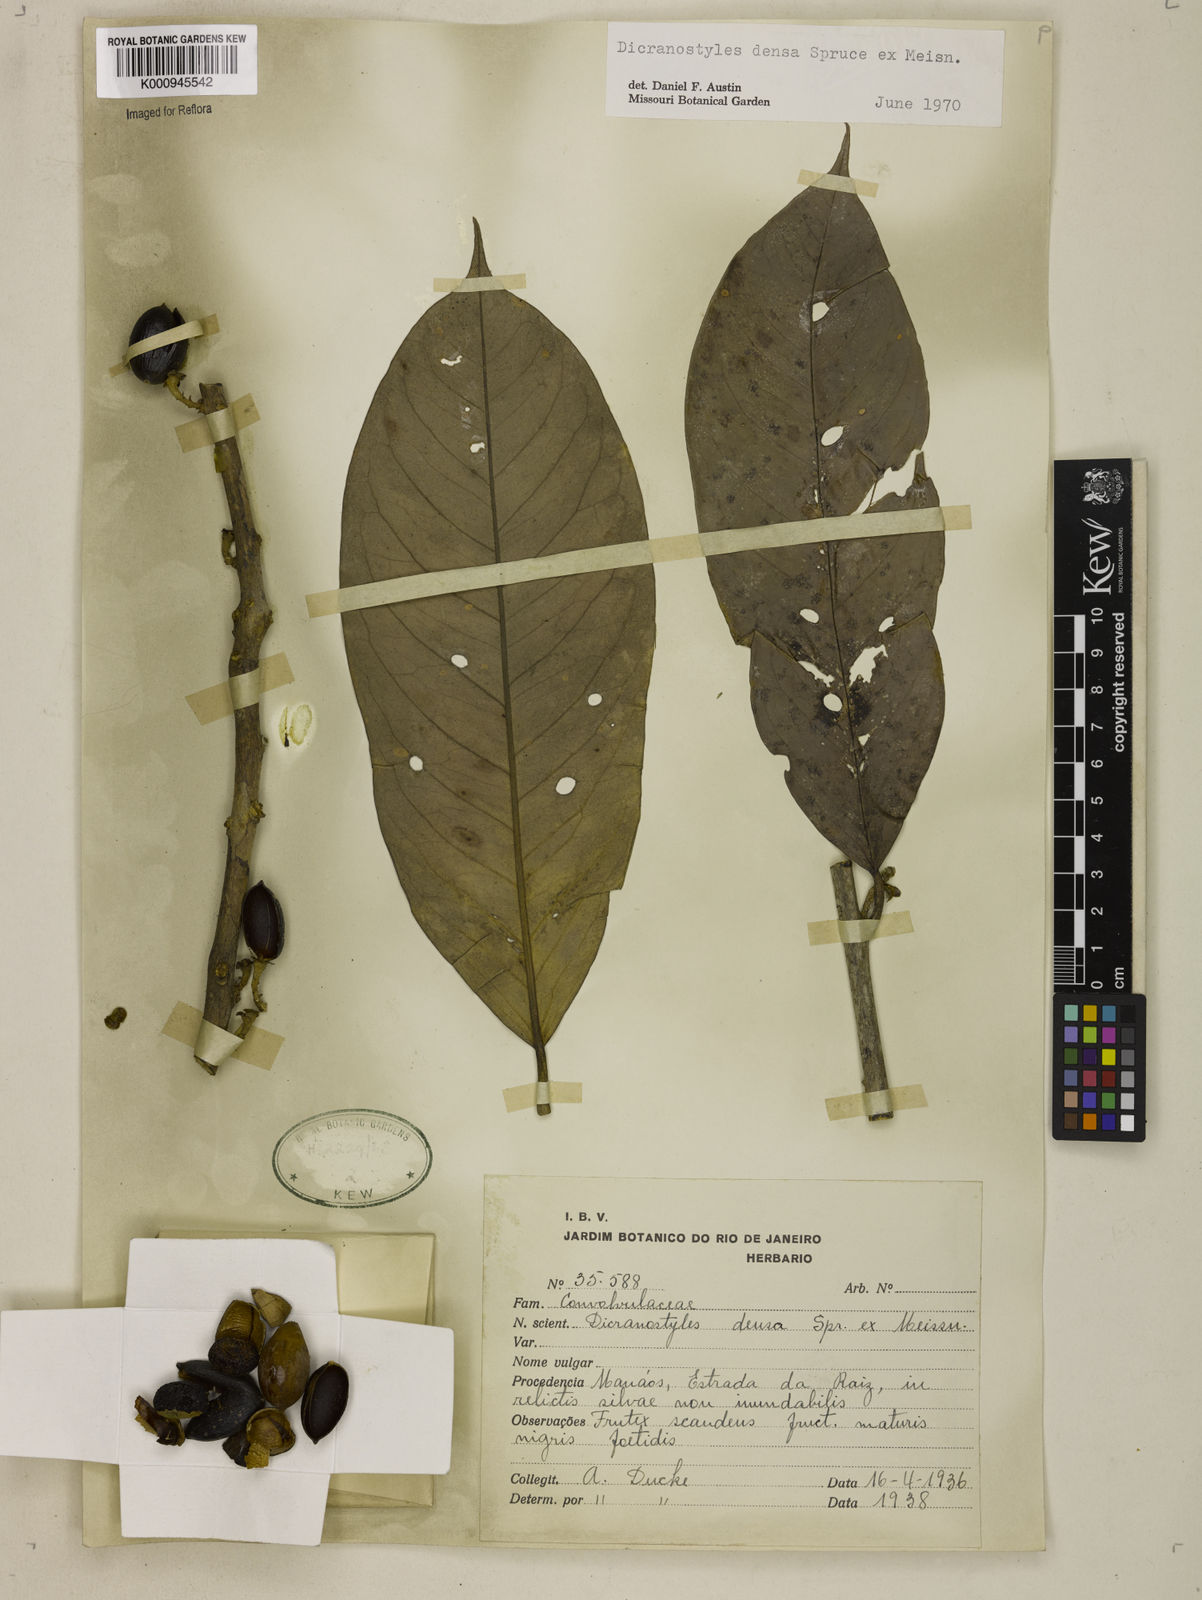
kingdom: Plantae
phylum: Tracheophyta
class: Magnoliopsida
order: Solanales
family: Convolvulaceae
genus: Dicranostyles
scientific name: Dicranostyles densa
